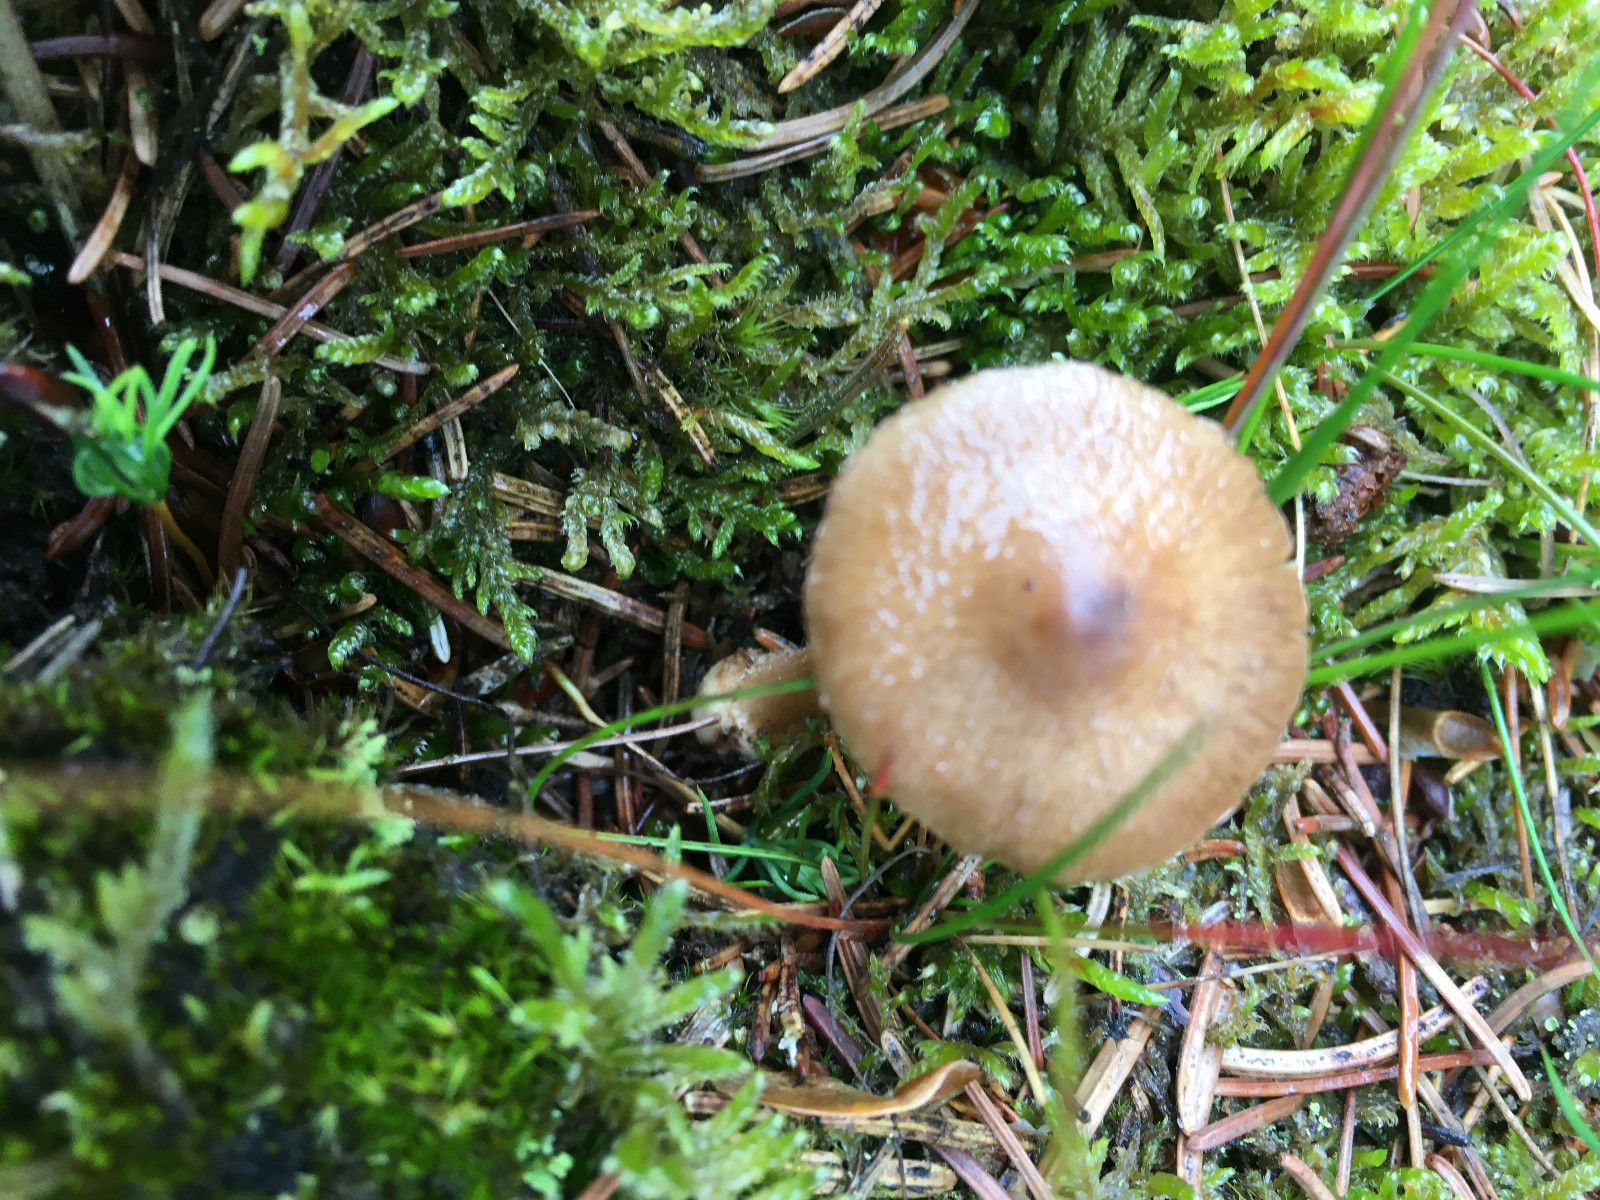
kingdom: Fungi
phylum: Basidiomycota
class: Agaricomycetes
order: Agaricales
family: Inocybaceae
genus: Inocybe
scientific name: Inocybe napipes
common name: roeknoldet trævlhat
